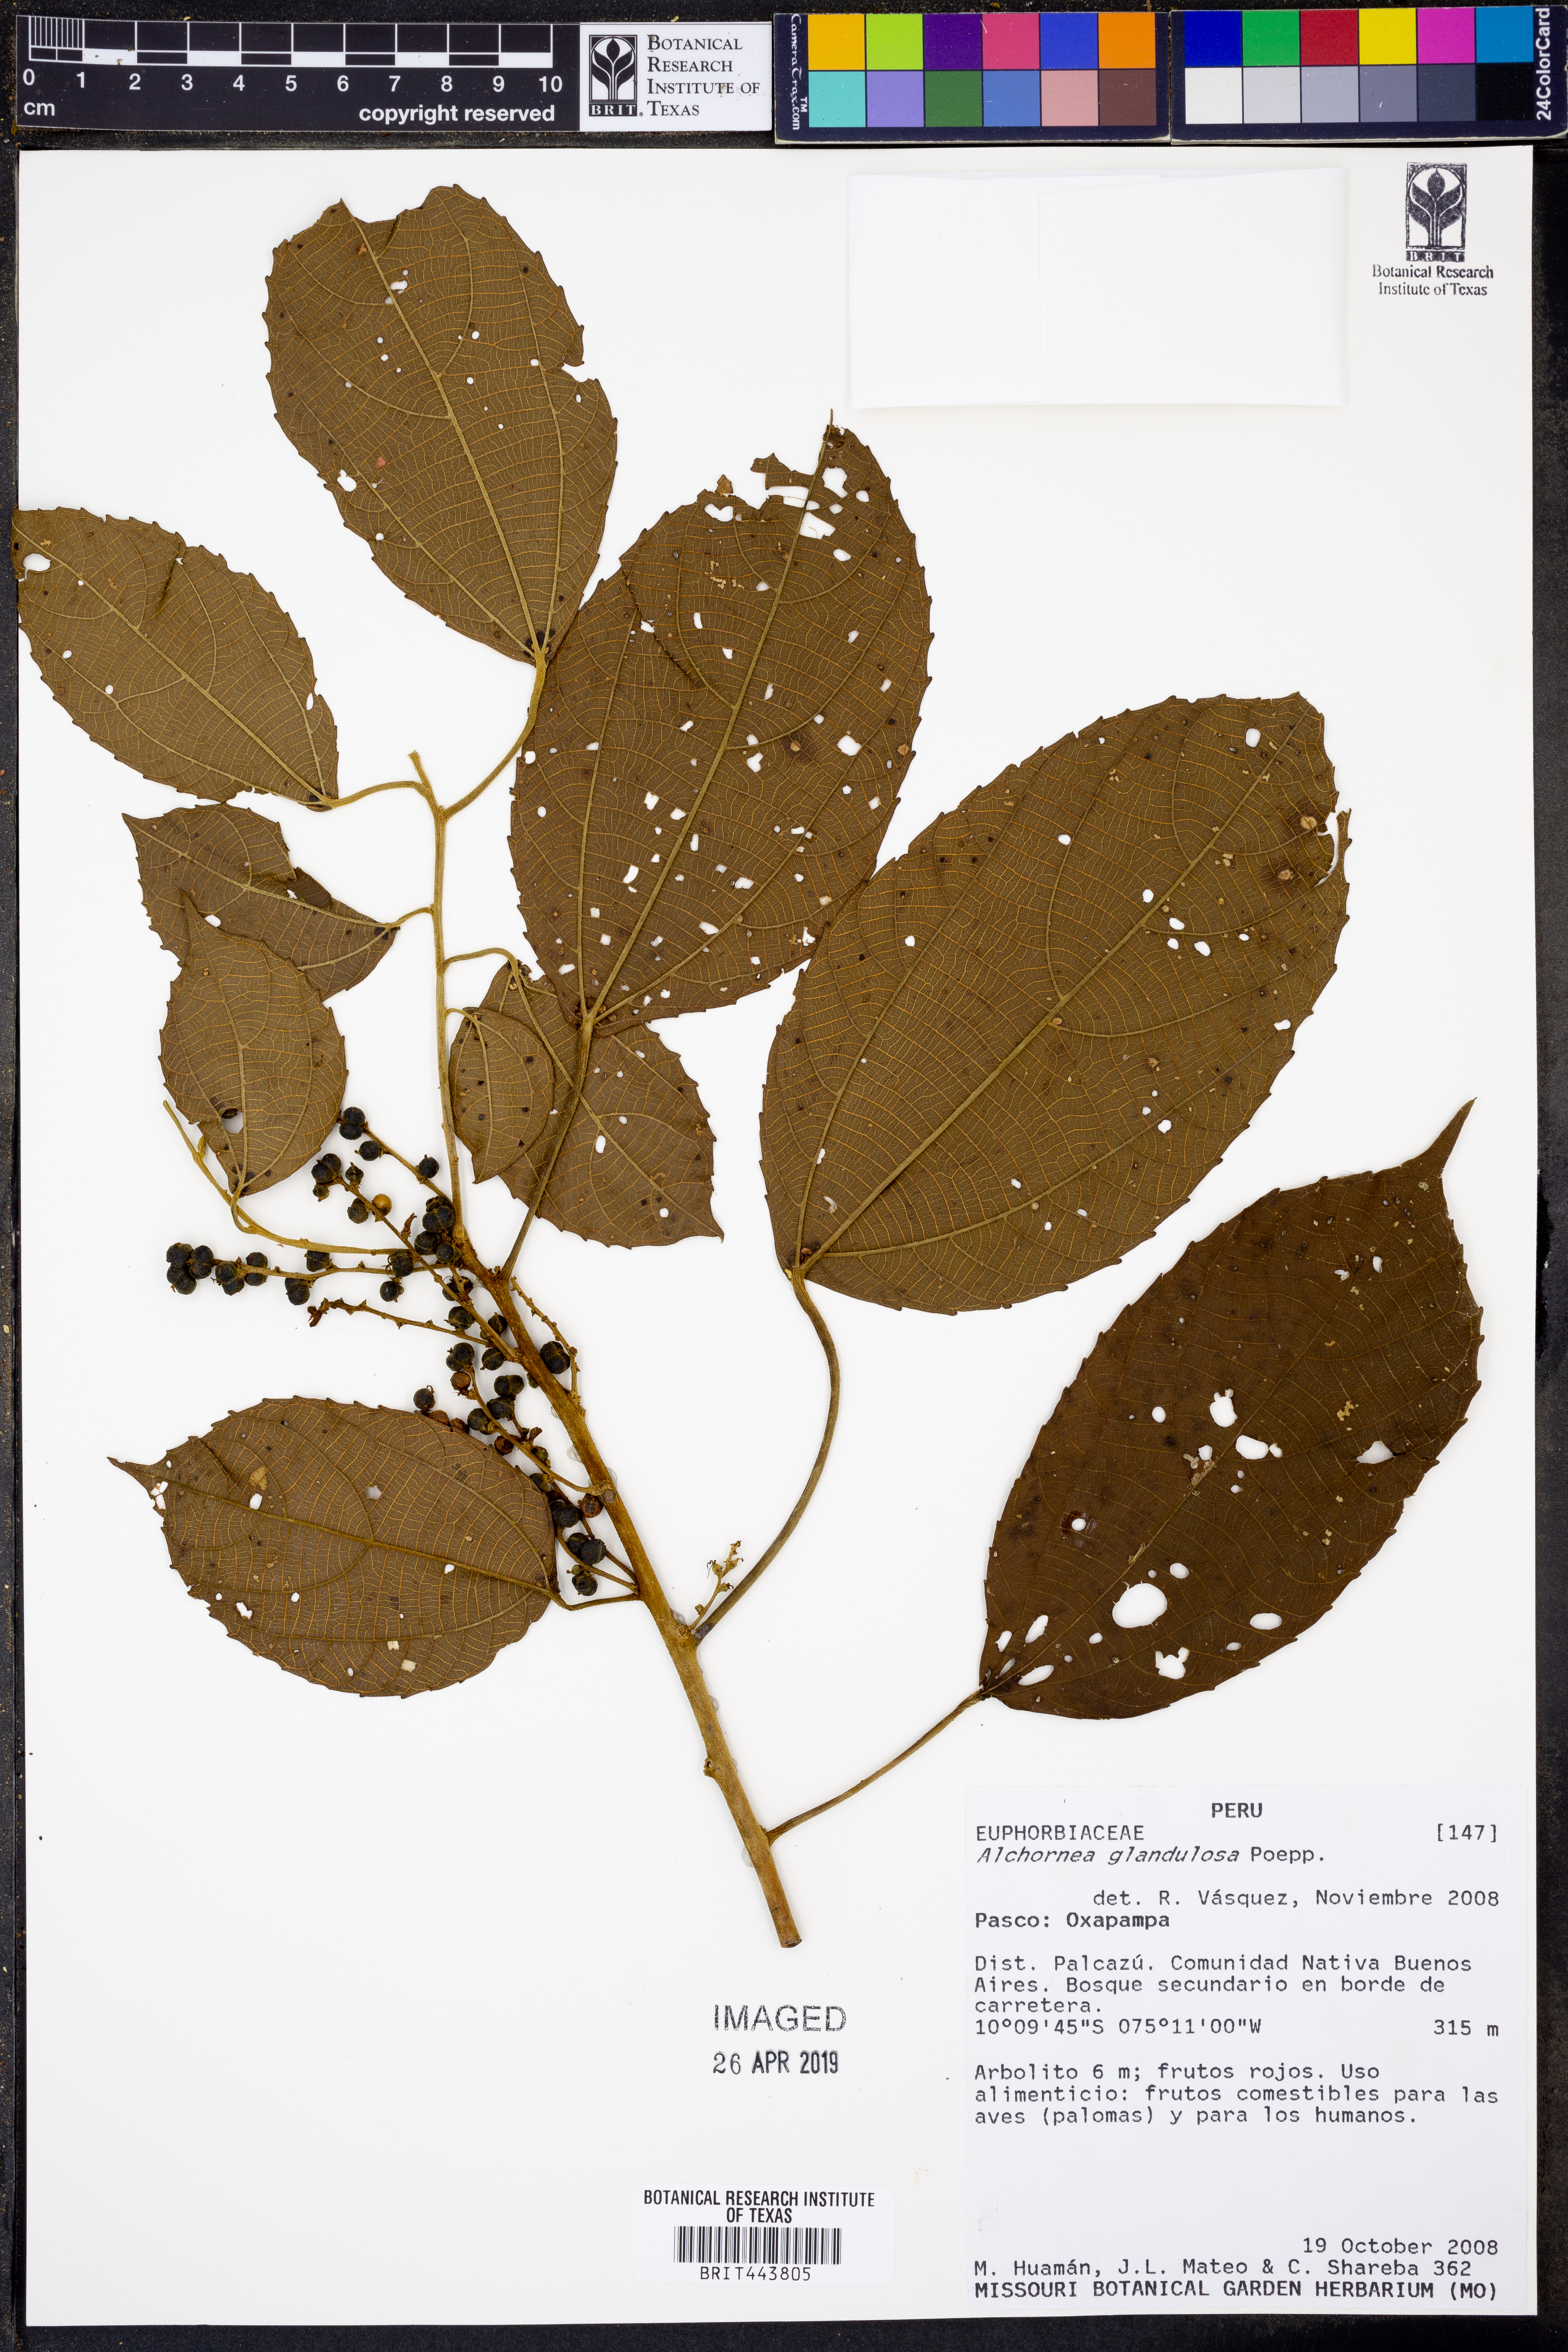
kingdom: Plantae
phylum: Tracheophyta
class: Magnoliopsida
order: Malpighiales
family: Euphorbiaceae
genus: Alchornea
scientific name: Alchornea glandulosa
